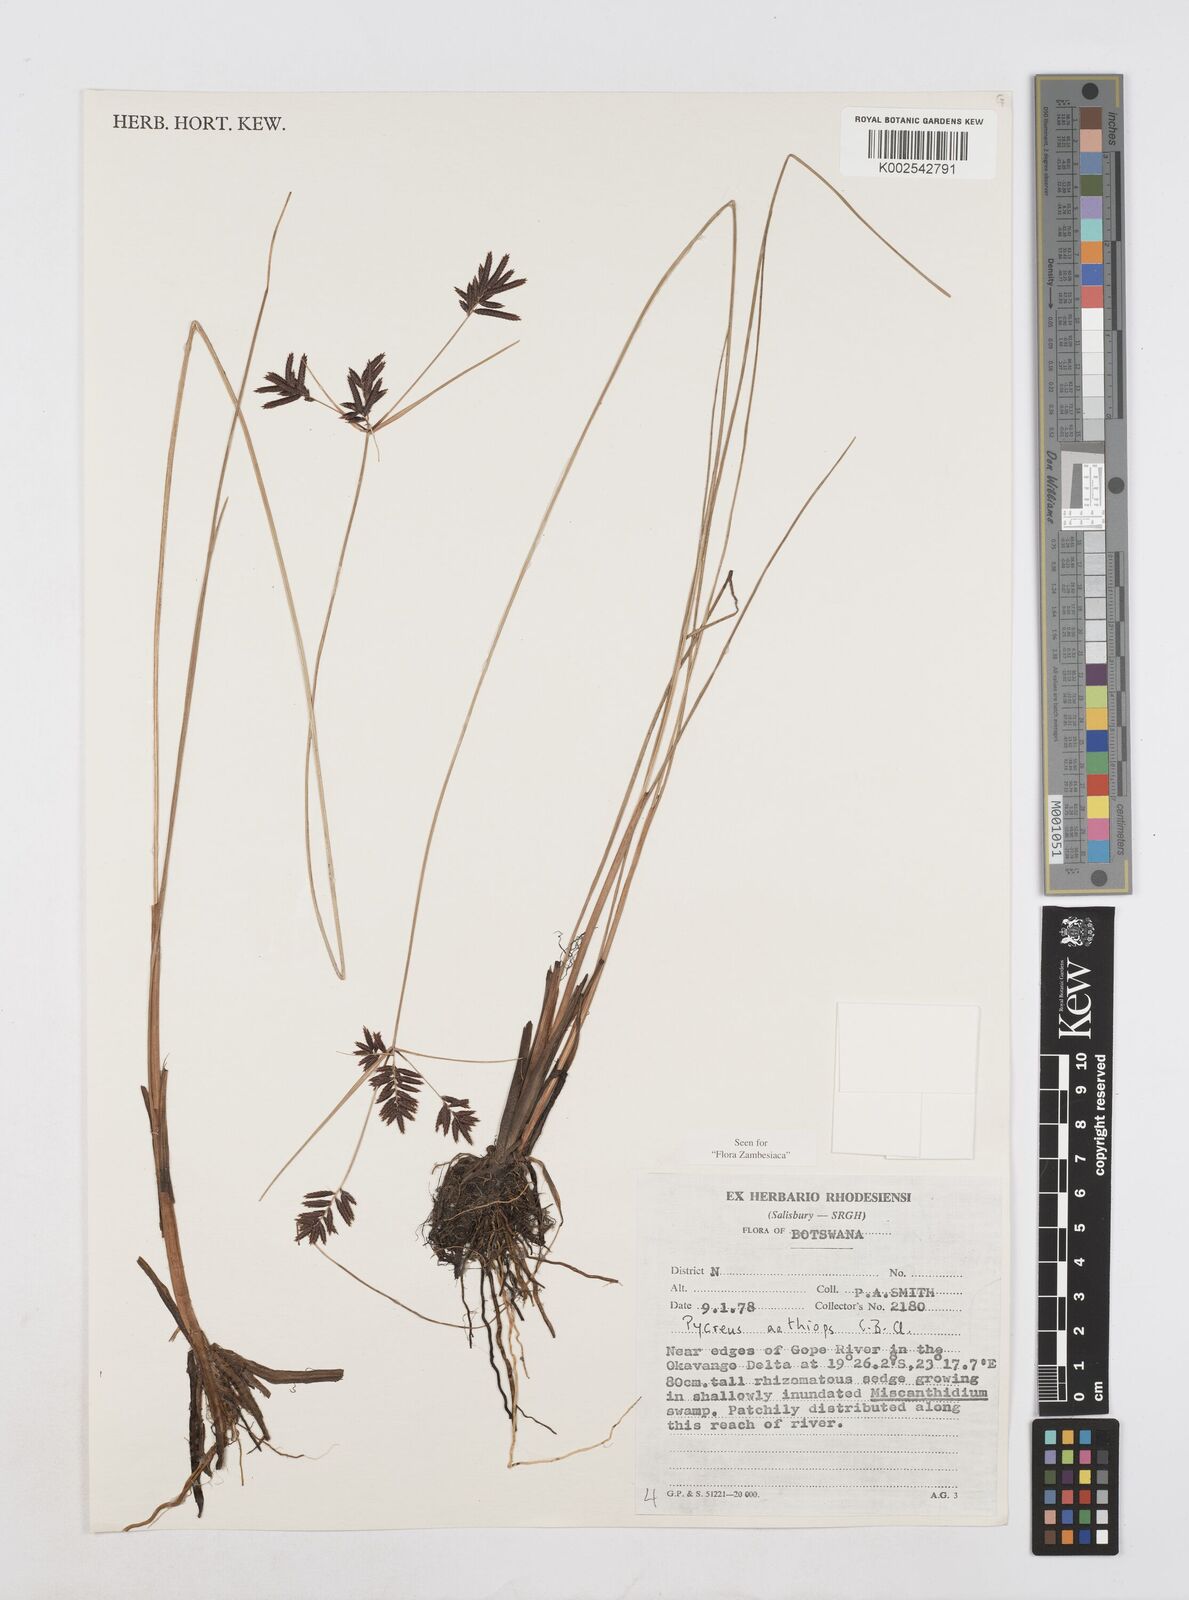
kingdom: Plantae
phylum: Tracheophyta
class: Liliopsida
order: Poales
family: Cyperaceae
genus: Cyperus
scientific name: Cyperus aethiops
